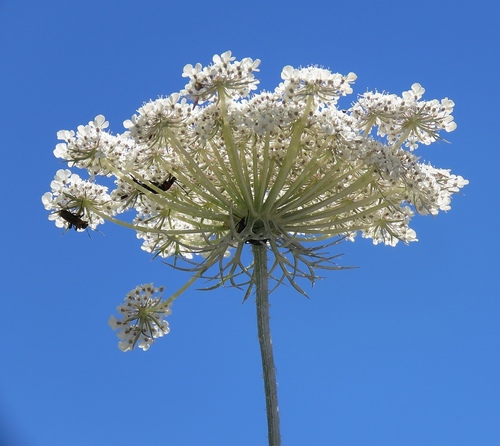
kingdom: Plantae
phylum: Tracheophyta
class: Magnoliopsida
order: Apiales
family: Apiaceae
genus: Daucus
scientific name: Daucus carota
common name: Wild carrot
